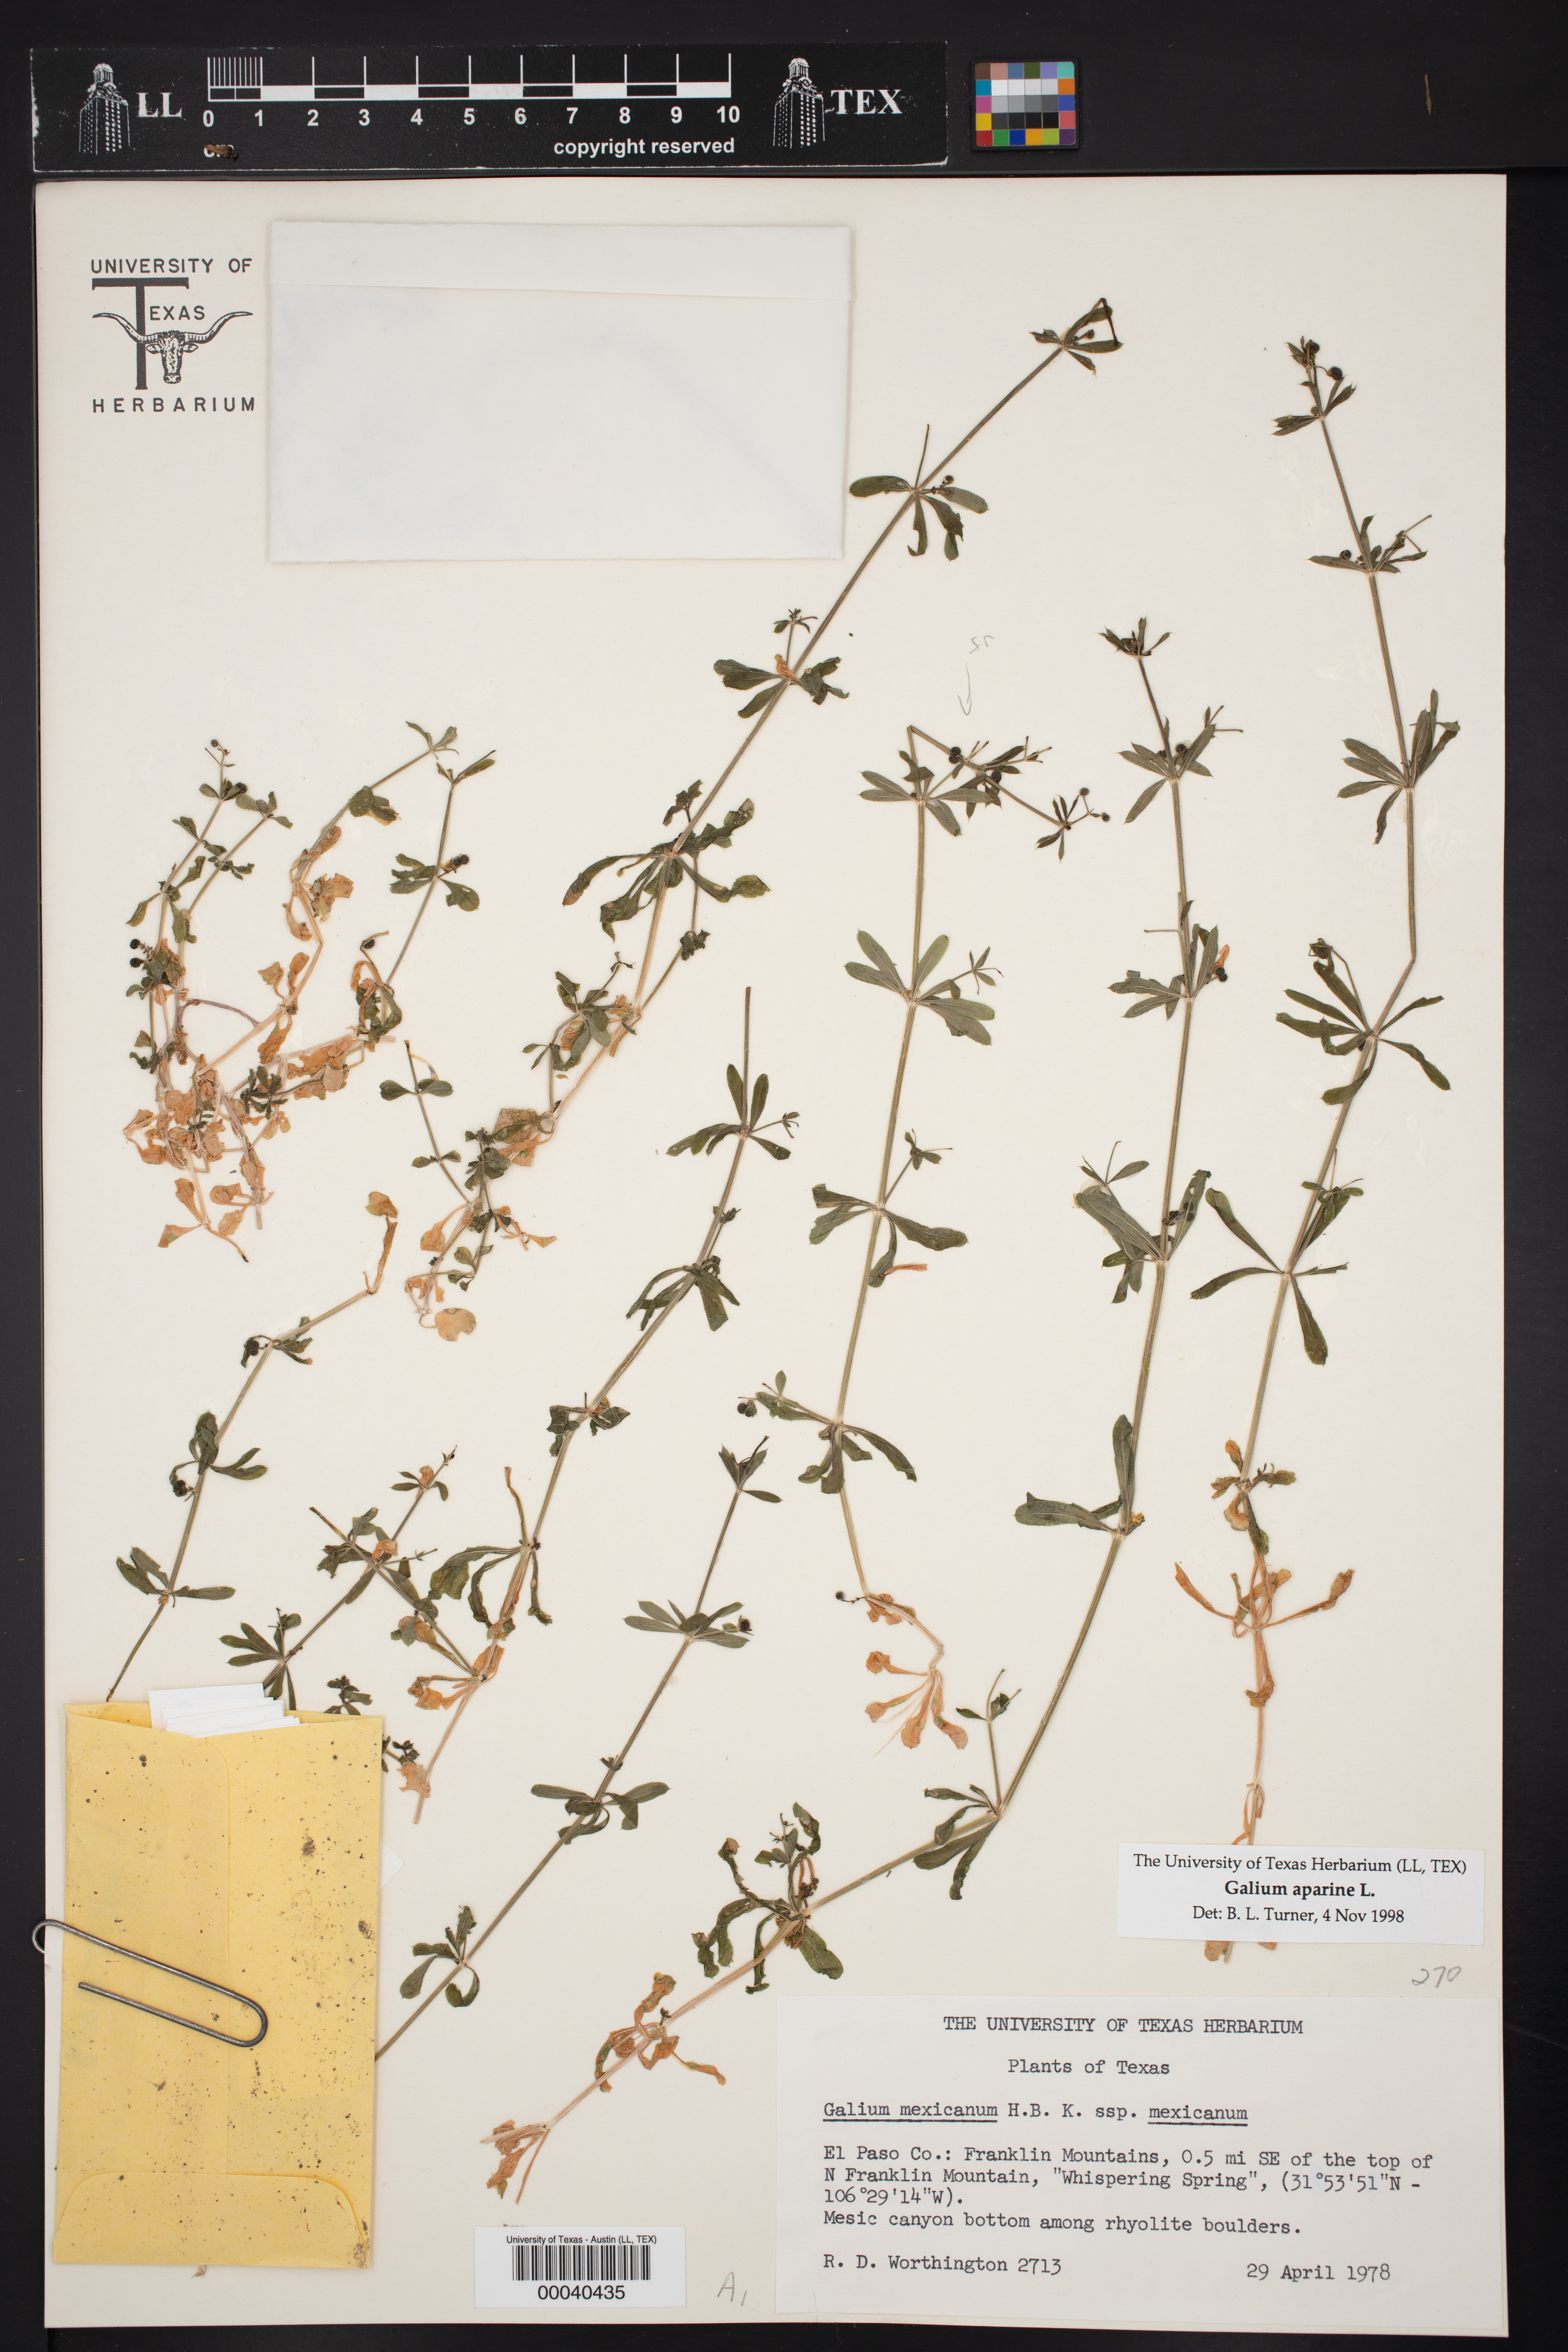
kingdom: Plantae
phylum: Tracheophyta
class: Magnoliopsida
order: Gentianales
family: Rubiaceae
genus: Galium
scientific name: Galium aparine
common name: Cleavers
